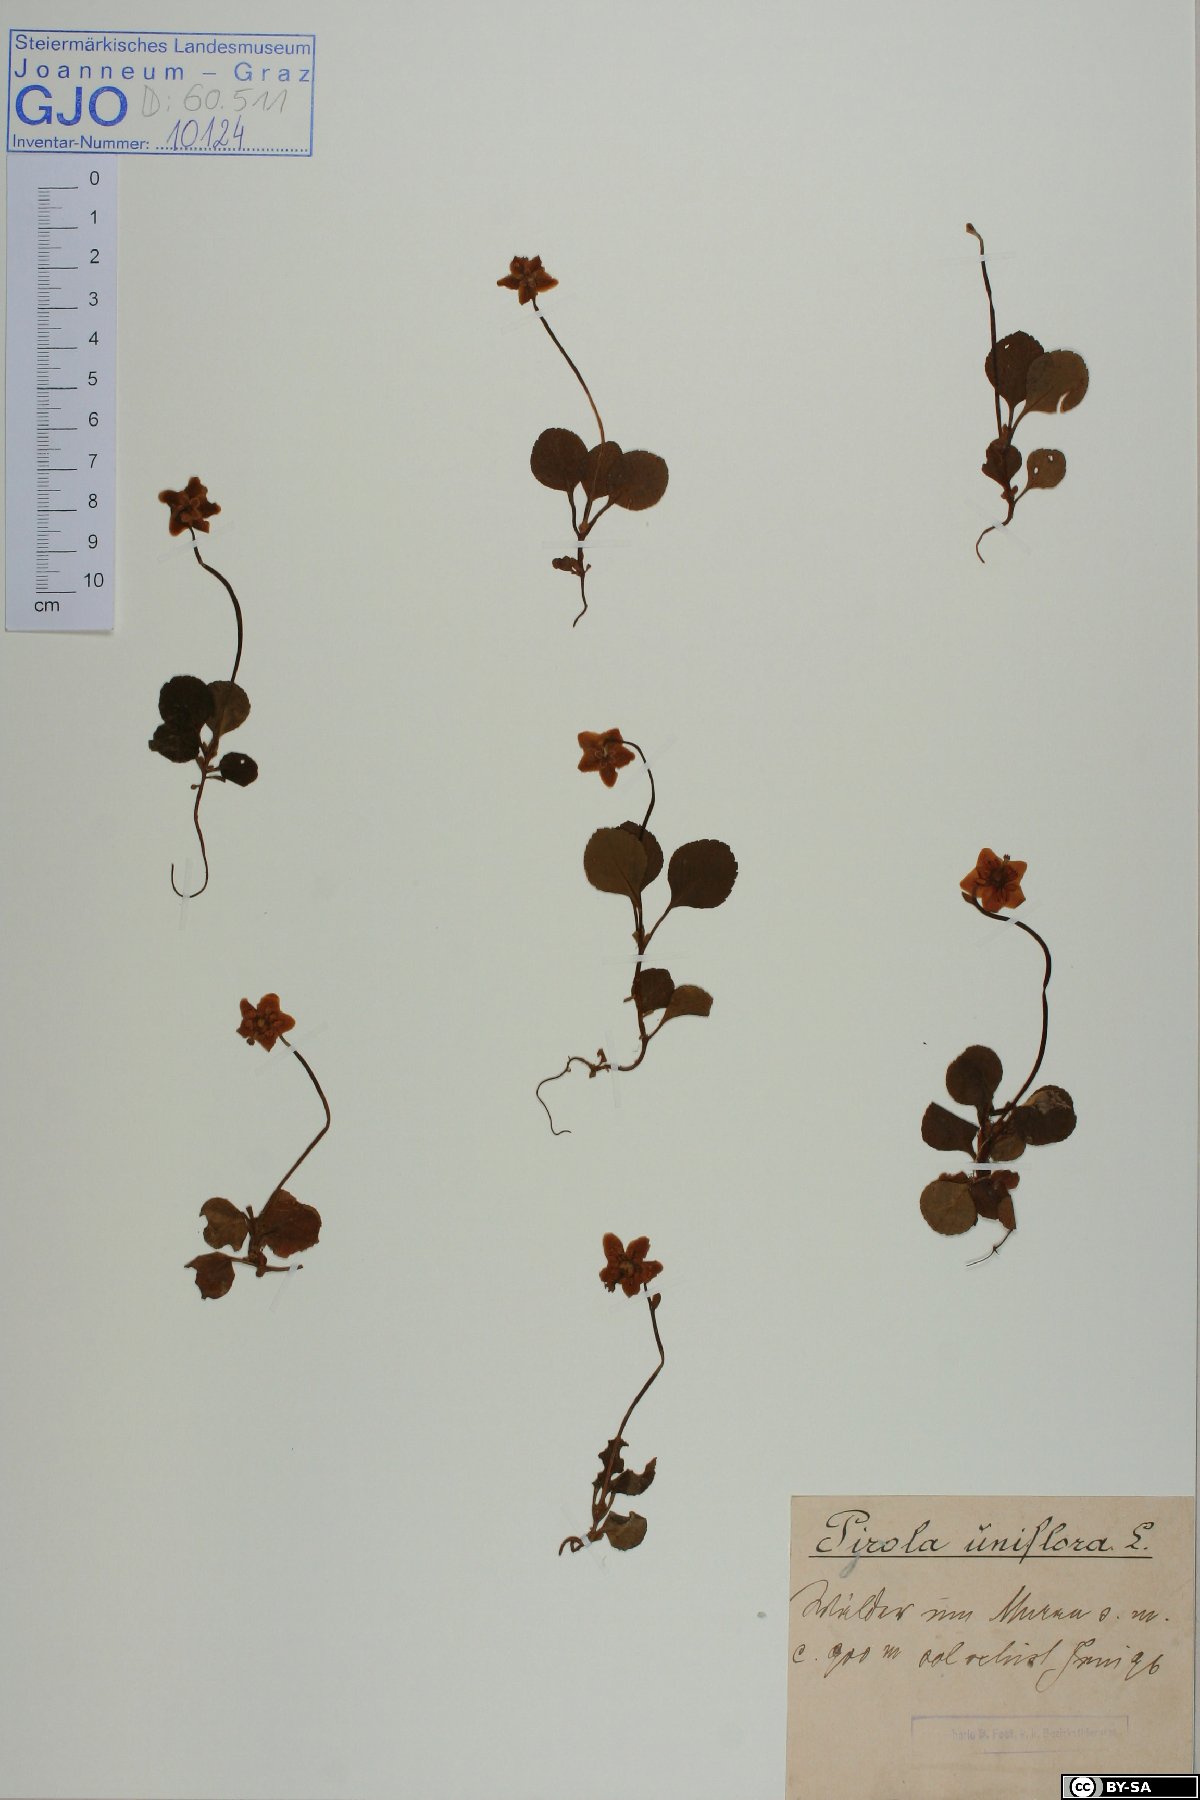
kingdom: Plantae
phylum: Tracheophyta
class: Magnoliopsida
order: Ericales
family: Ericaceae
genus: Moneses
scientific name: Moneses uniflora
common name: One-flowered wintergreen
